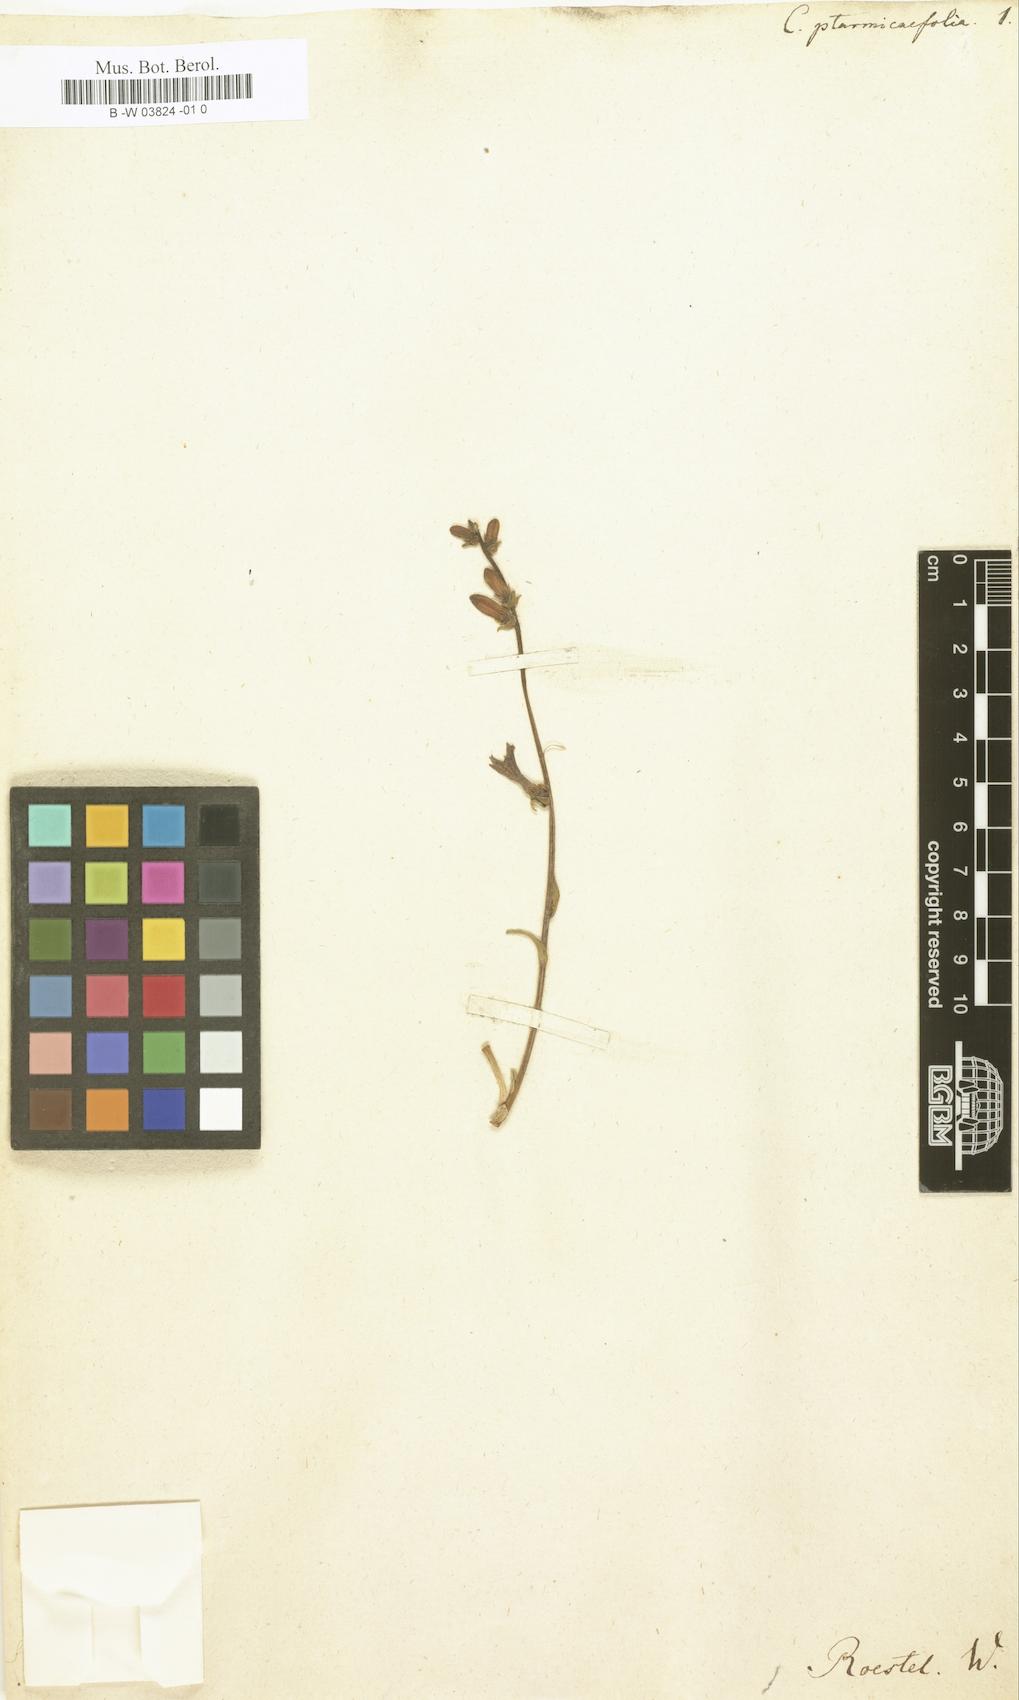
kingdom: Plantae
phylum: Tracheophyta
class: Magnoliopsida
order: Asterales
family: Campanulaceae
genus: Campanula
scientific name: Campanula ptarmicifolia
